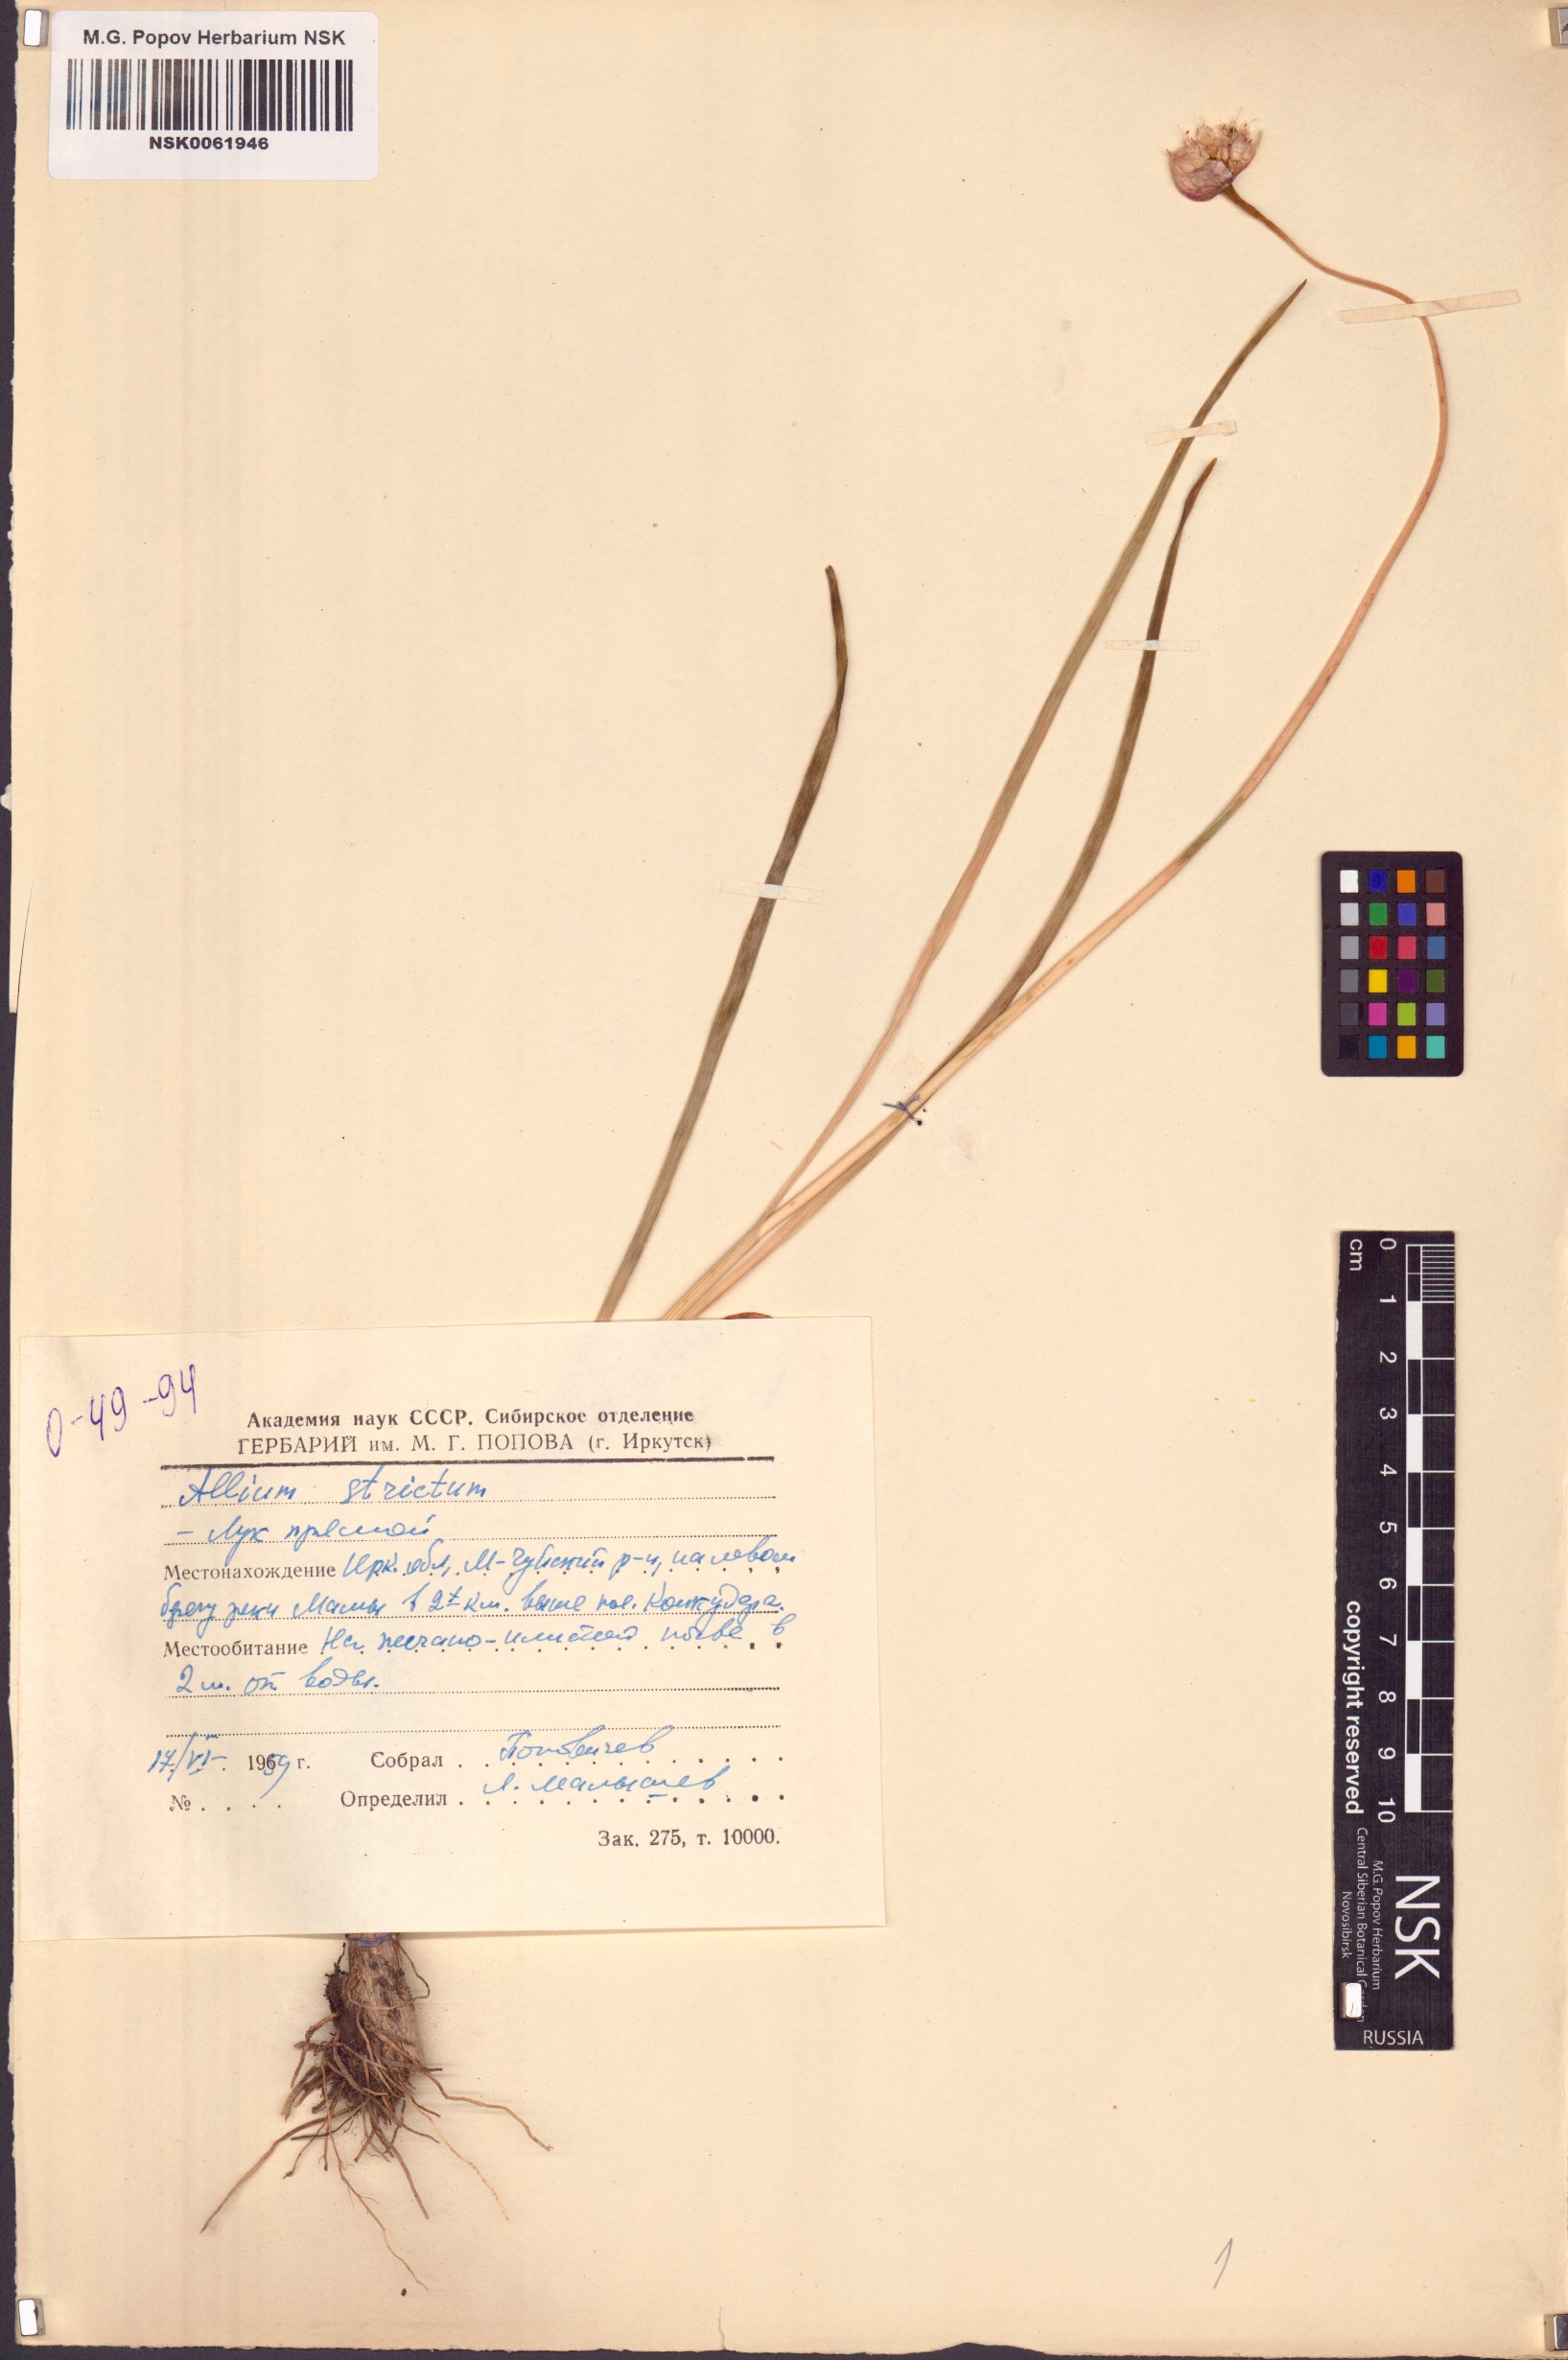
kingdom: Plantae
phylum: Tracheophyta
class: Liliopsida
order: Asparagales
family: Amaryllidaceae
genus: Allium
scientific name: Allium strictum
